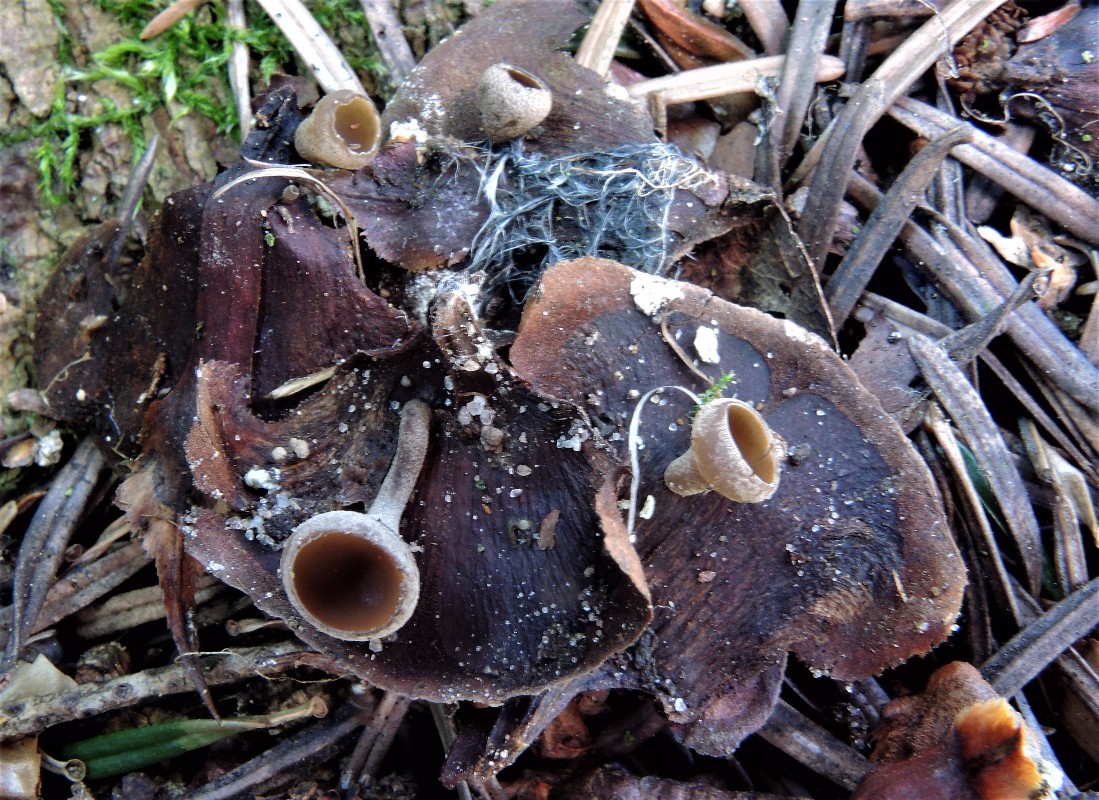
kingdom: Fungi
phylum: Ascomycota
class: Leotiomycetes
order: Helotiales
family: Sclerotiniaceae
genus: Ciboria
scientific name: Ciboria rufofusca
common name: kogleskæl-knoldskive
